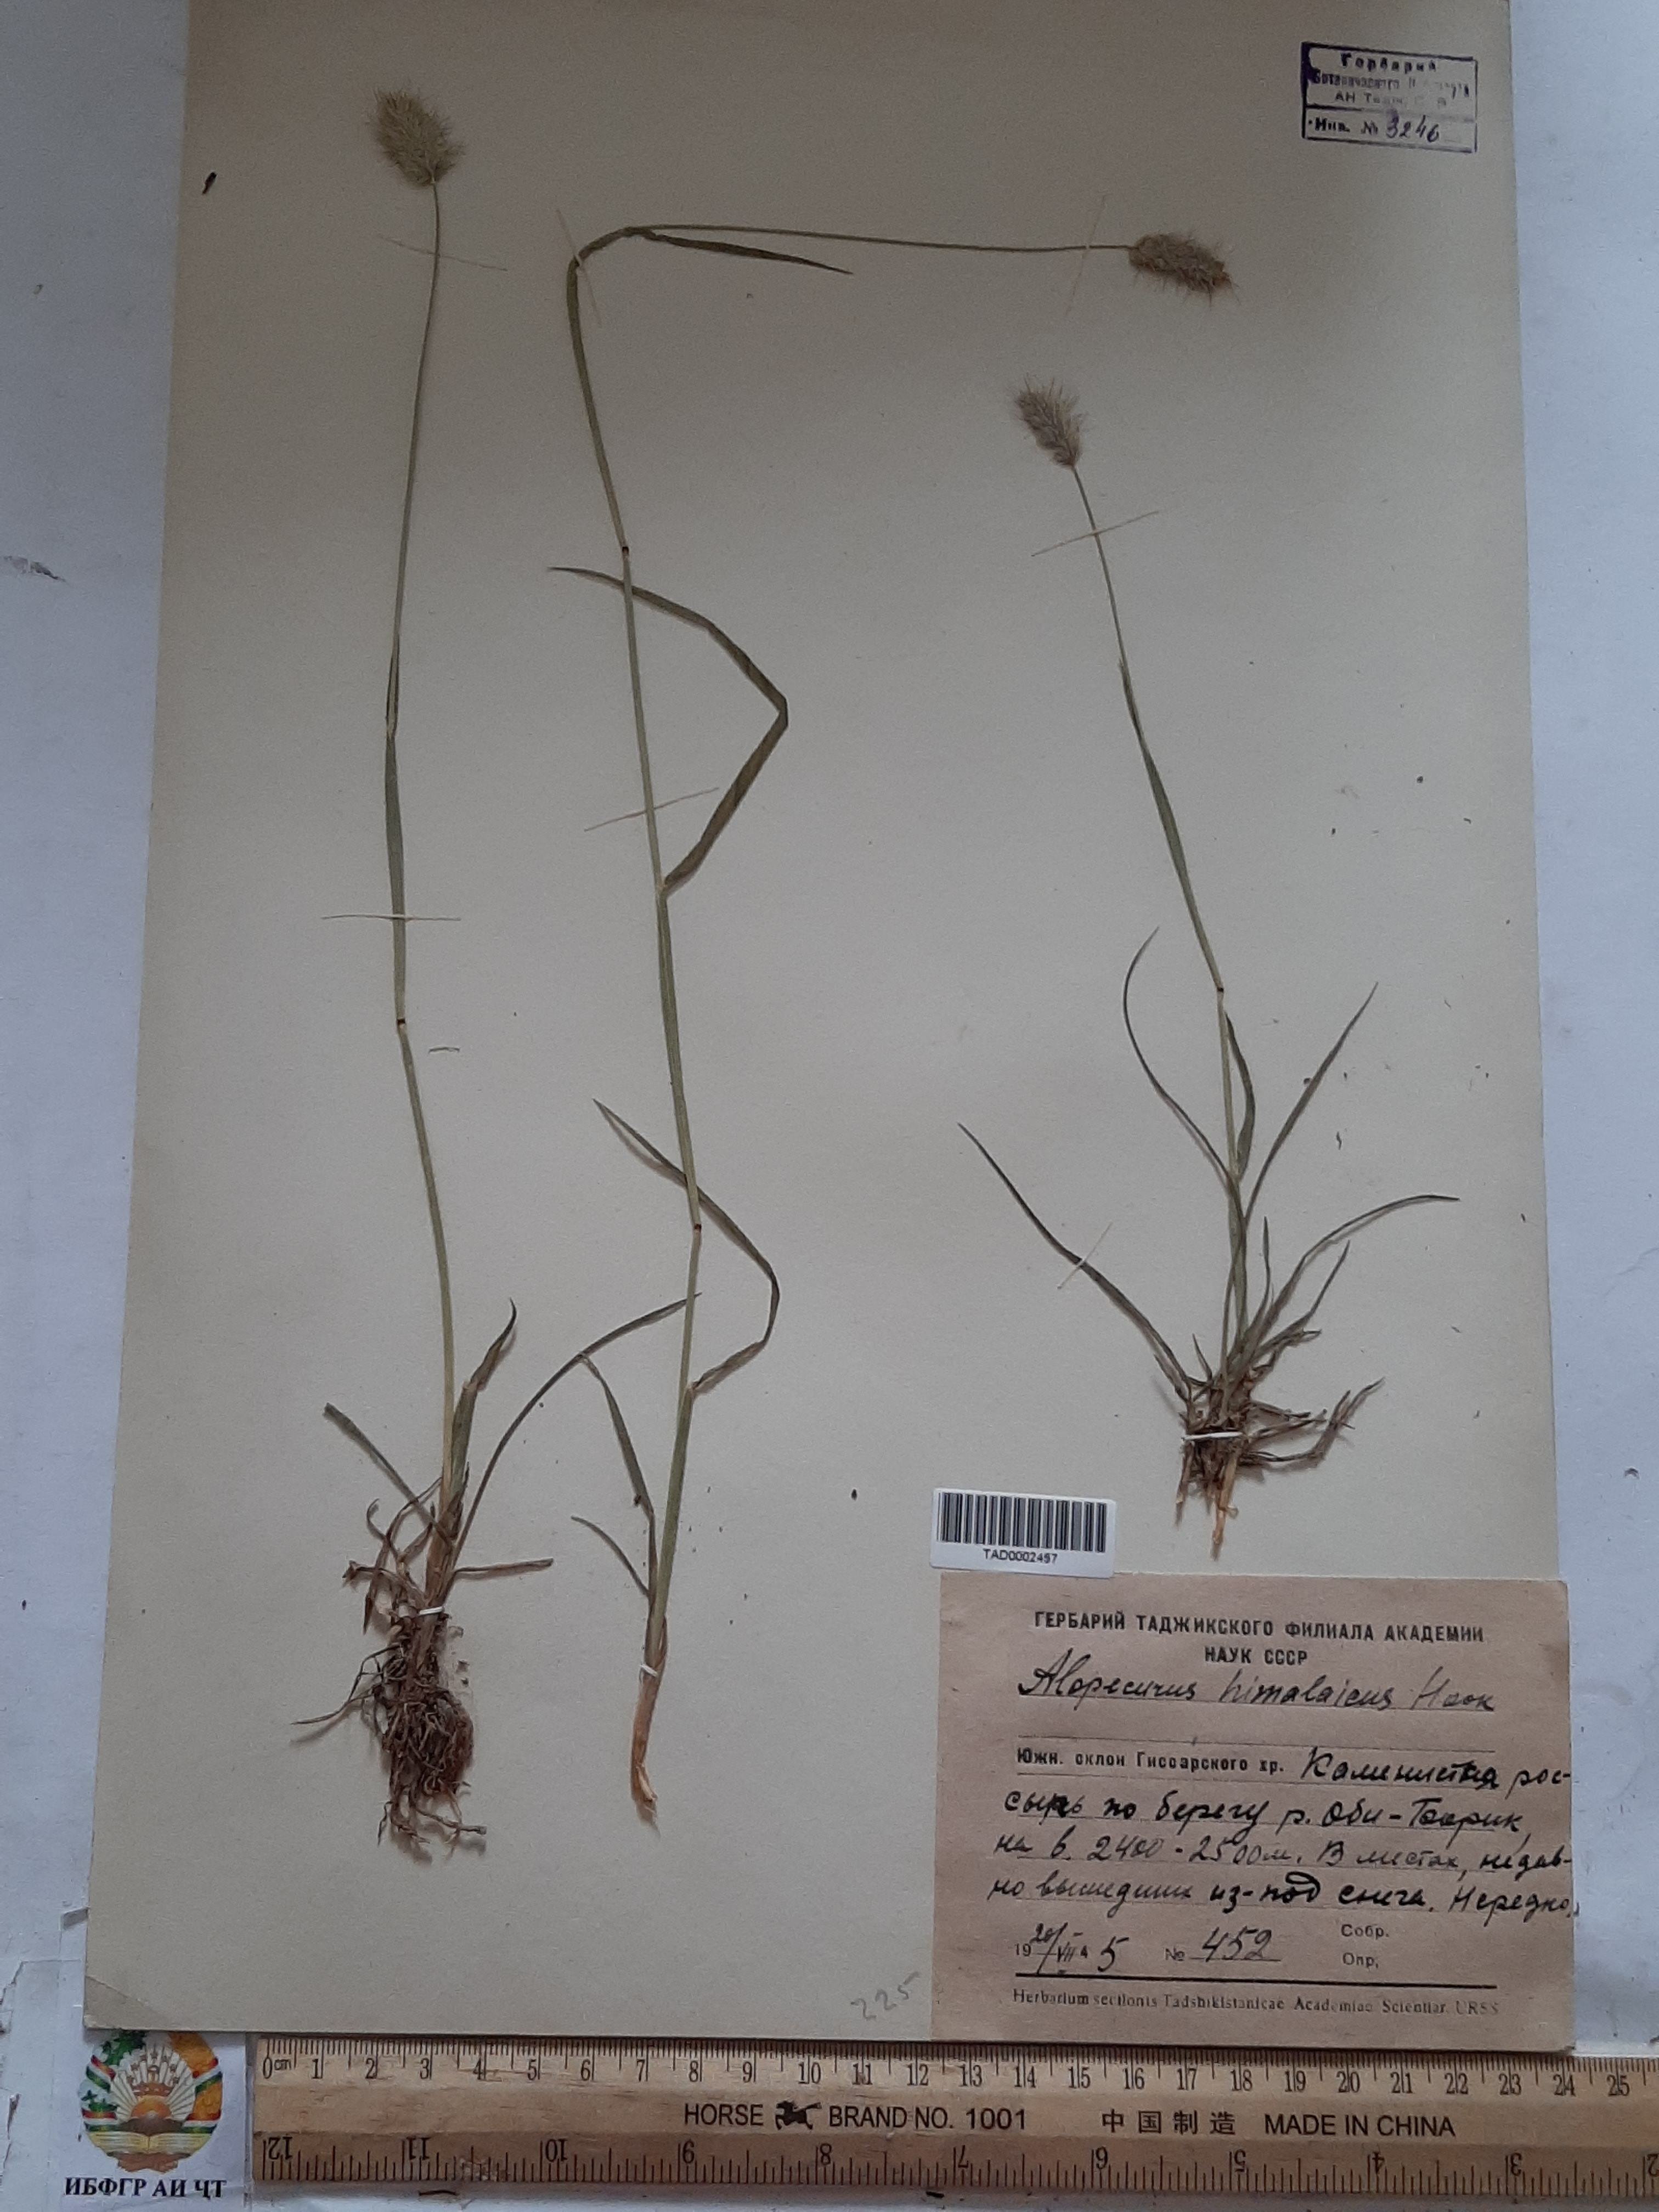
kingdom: Plantae
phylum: Tracheophyta
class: Liliopsida
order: Poales
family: Poaceae
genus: Alopecurus
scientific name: Alopecurus himalaicus
